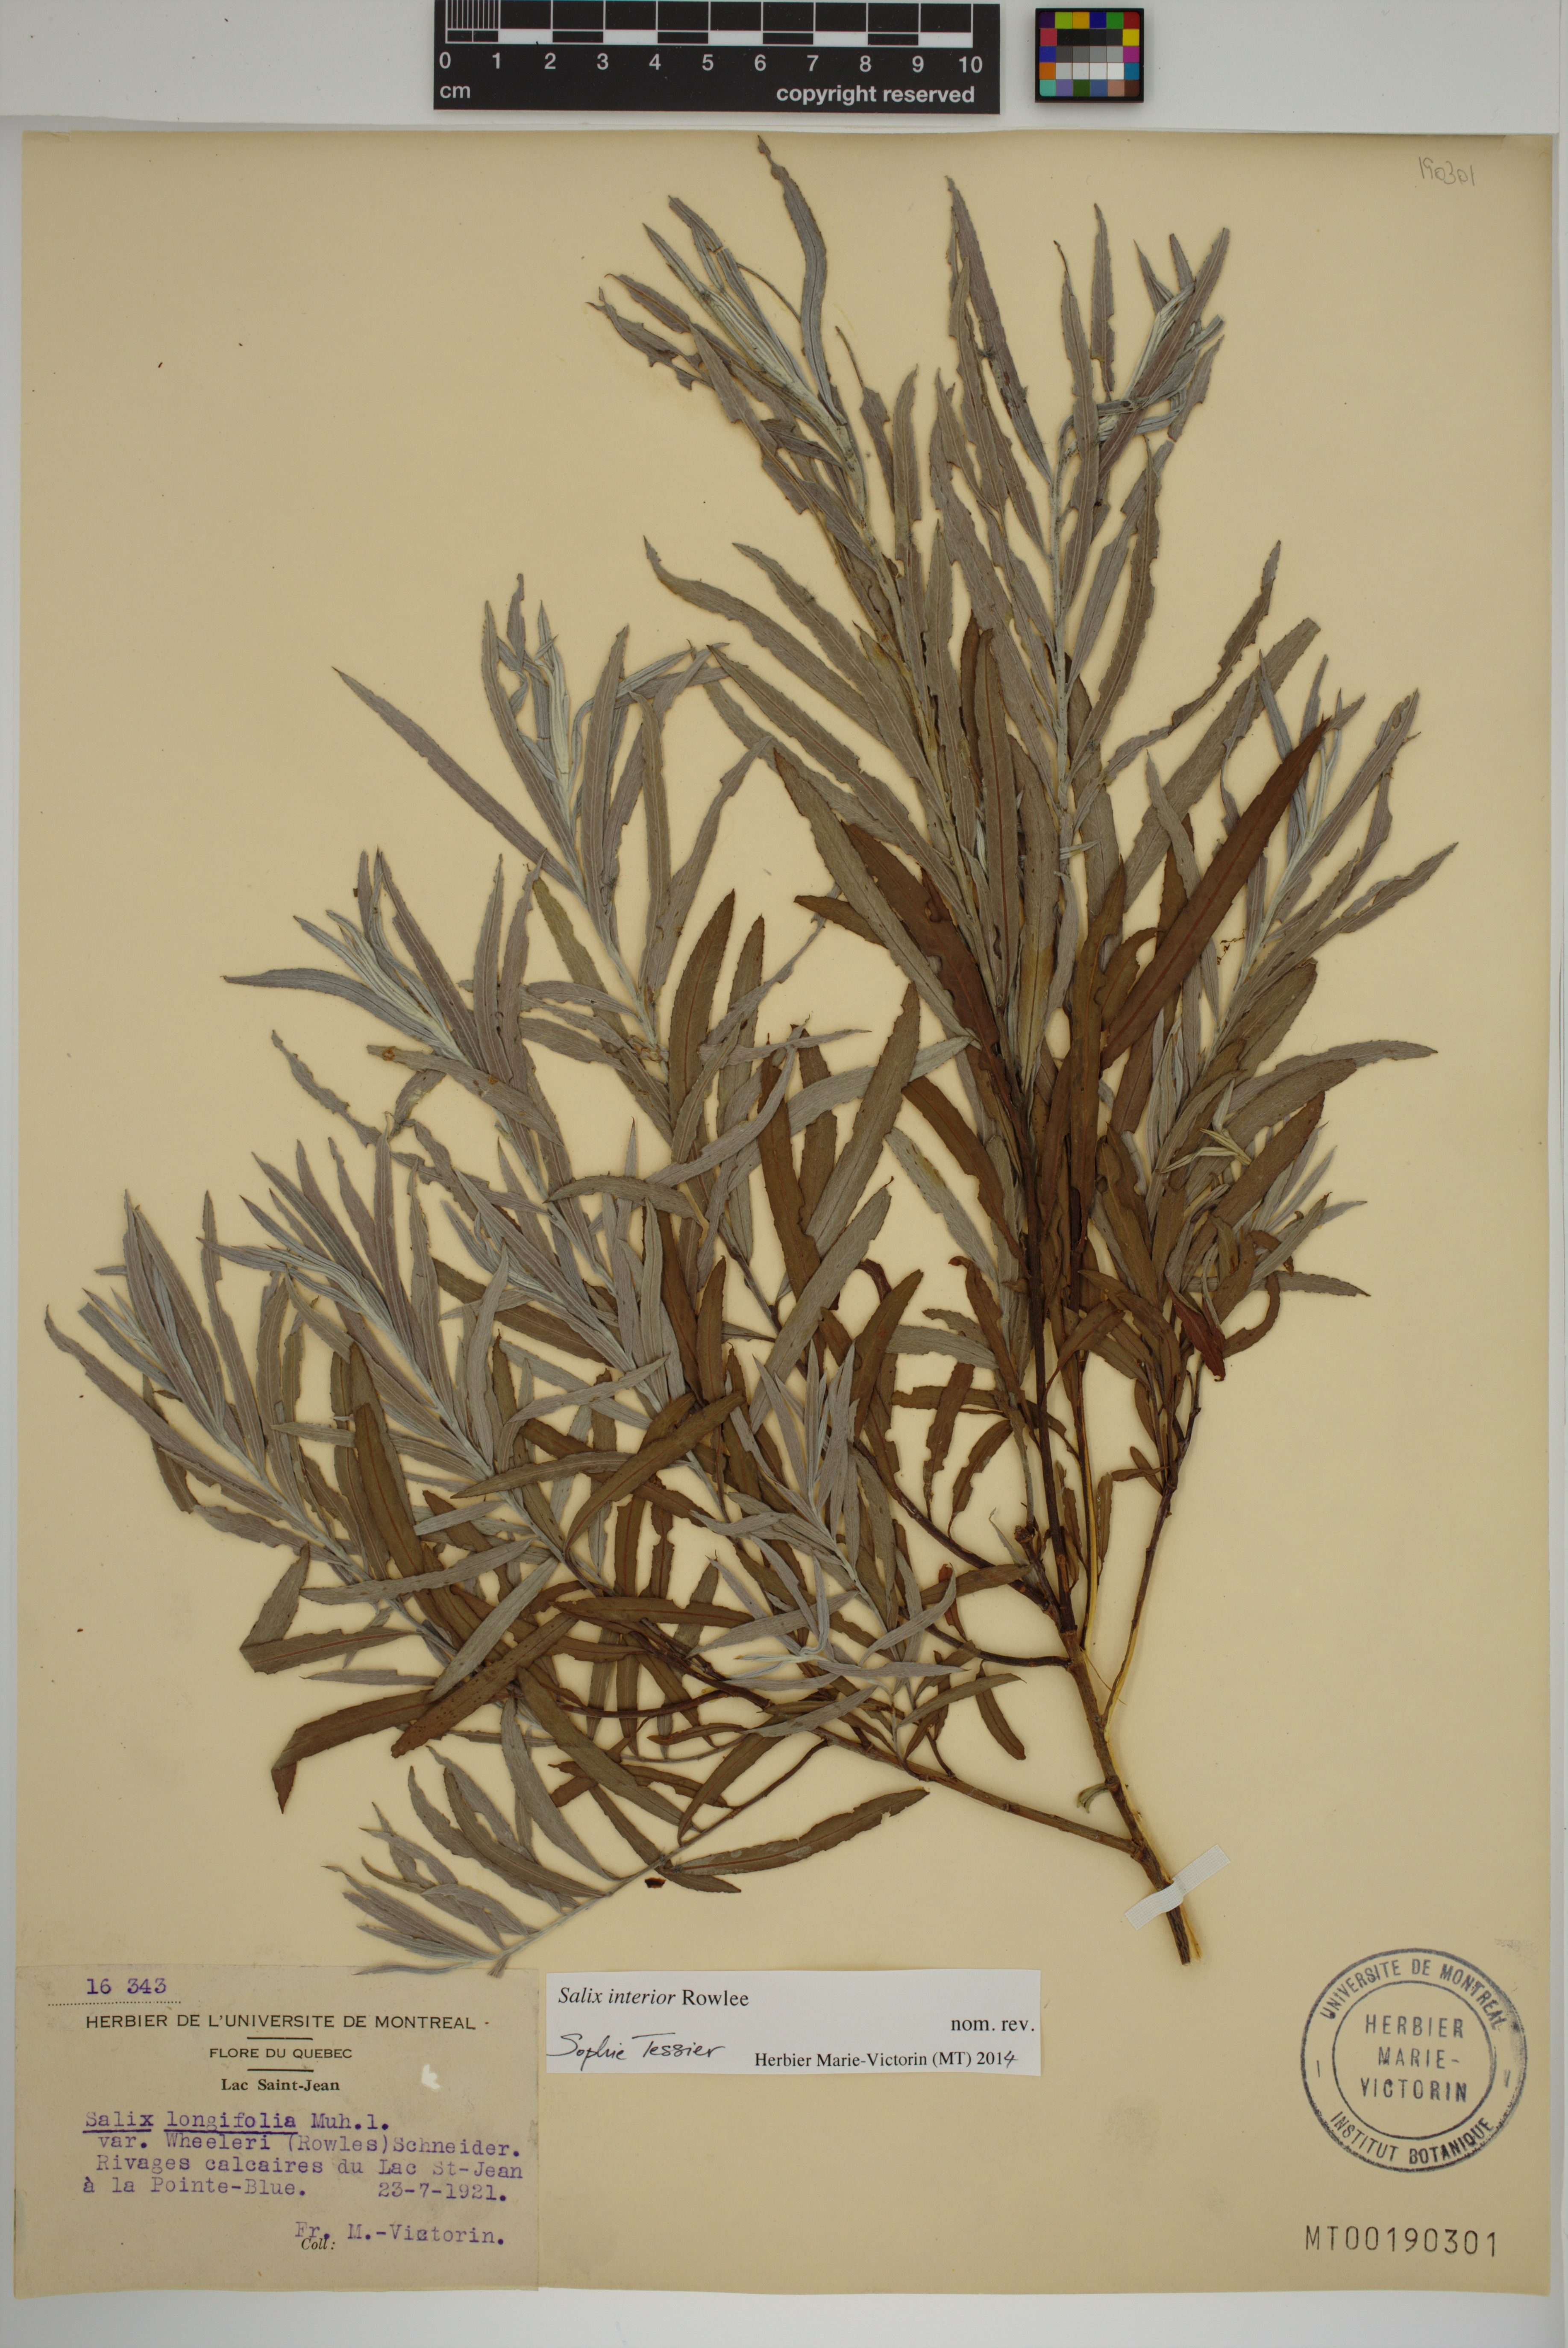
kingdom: Plantae
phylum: Tracheophyta
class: Magnoliopsida
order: Malpighiales
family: Salicaceae
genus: Salix
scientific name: Salix interior
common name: Sandbar willow
